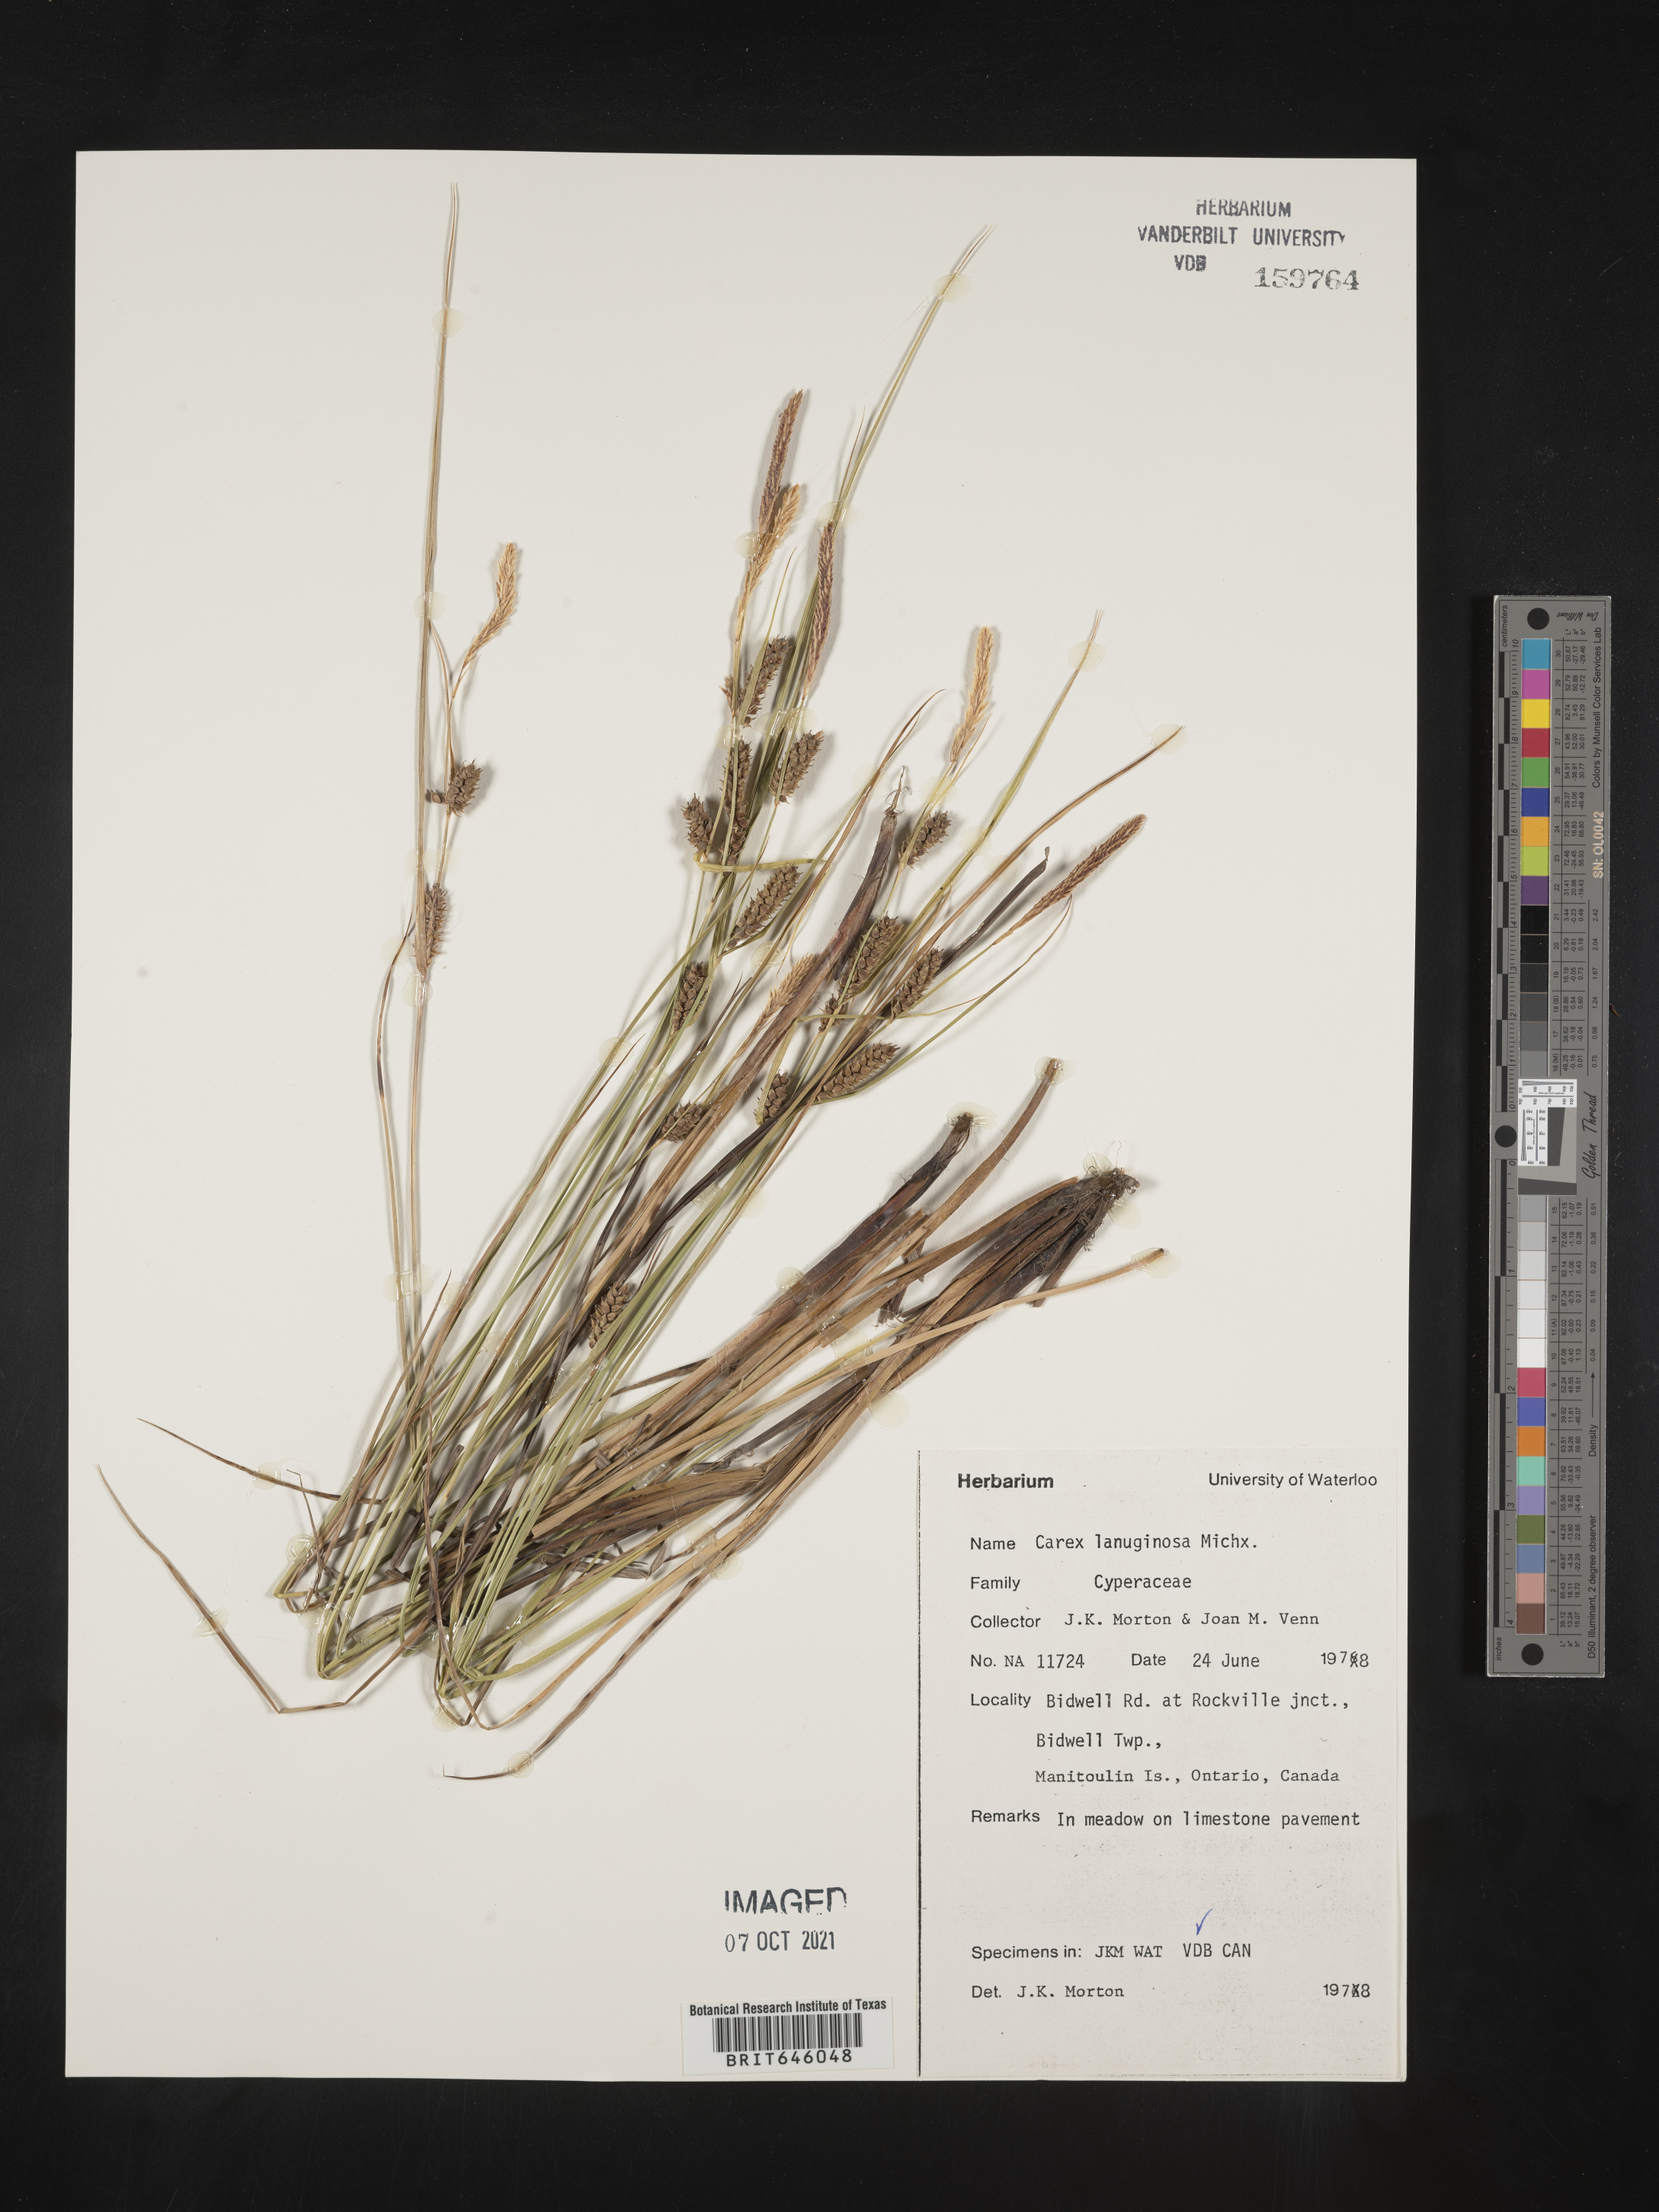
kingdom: Plantae
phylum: Tracheophyta
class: Liliopsida
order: Poales
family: Cyperaceae
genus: Carex
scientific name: Carex lasiocarpa
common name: Slender sedge
